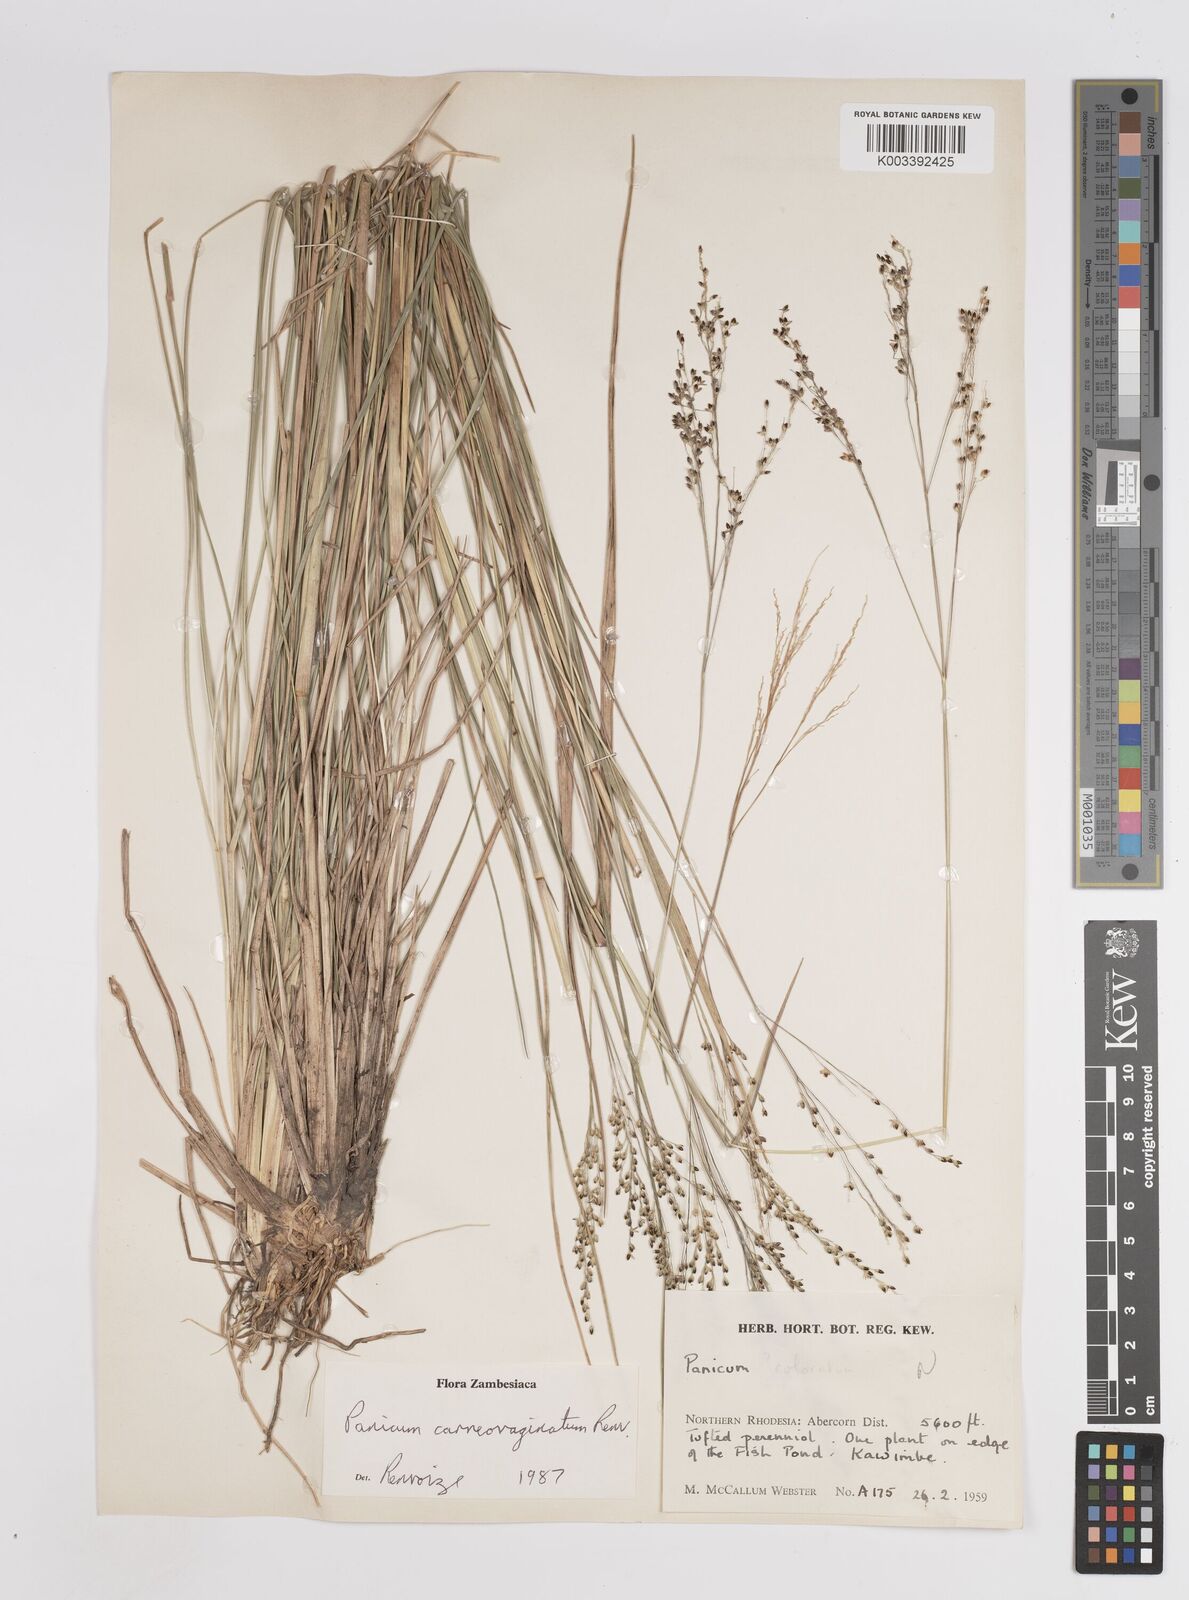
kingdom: Plantae
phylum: Tracheophyta
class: Liliopsida
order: Poales
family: Poaceae
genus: Panicum
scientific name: Panicum carneovaginatum
